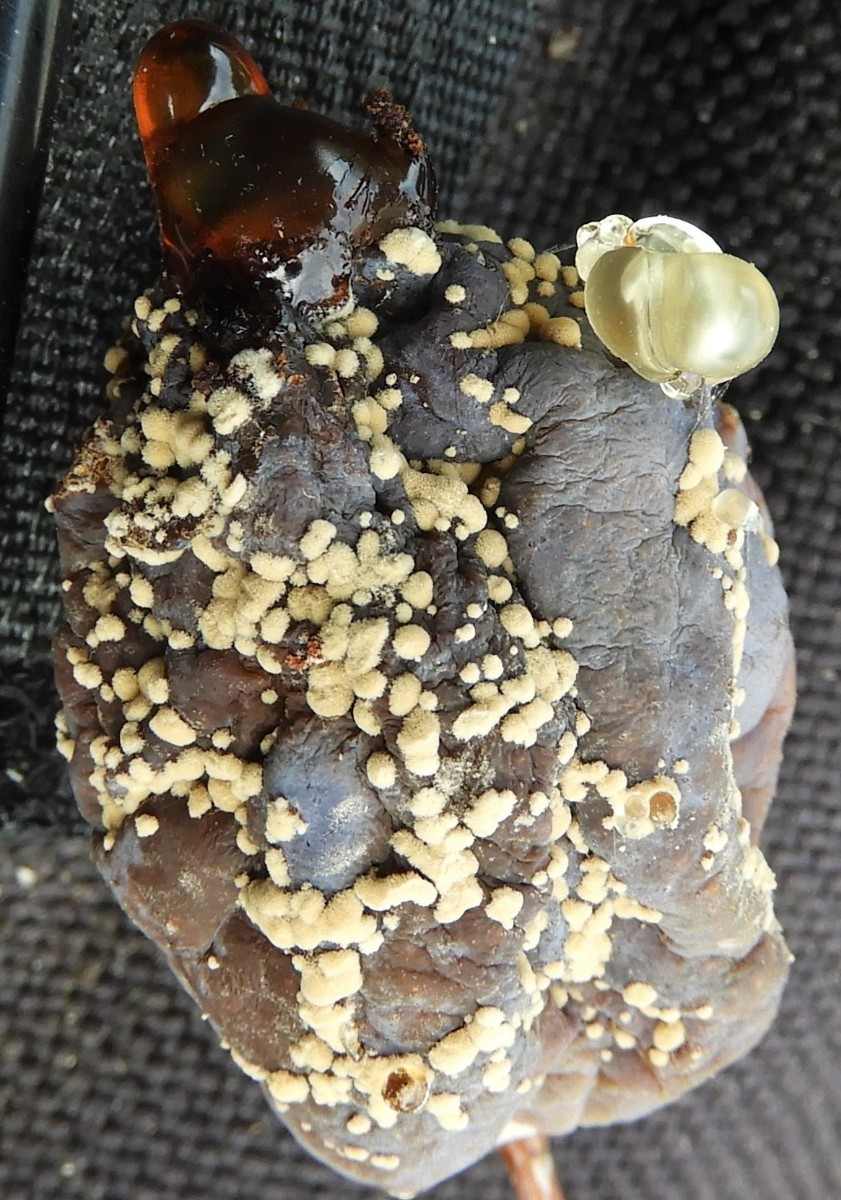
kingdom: Fungi
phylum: Ascomycota
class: Leotiomycetes
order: Helotiales
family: Sclerotiniaceae
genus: Monilinia
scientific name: Monilinia laxa
